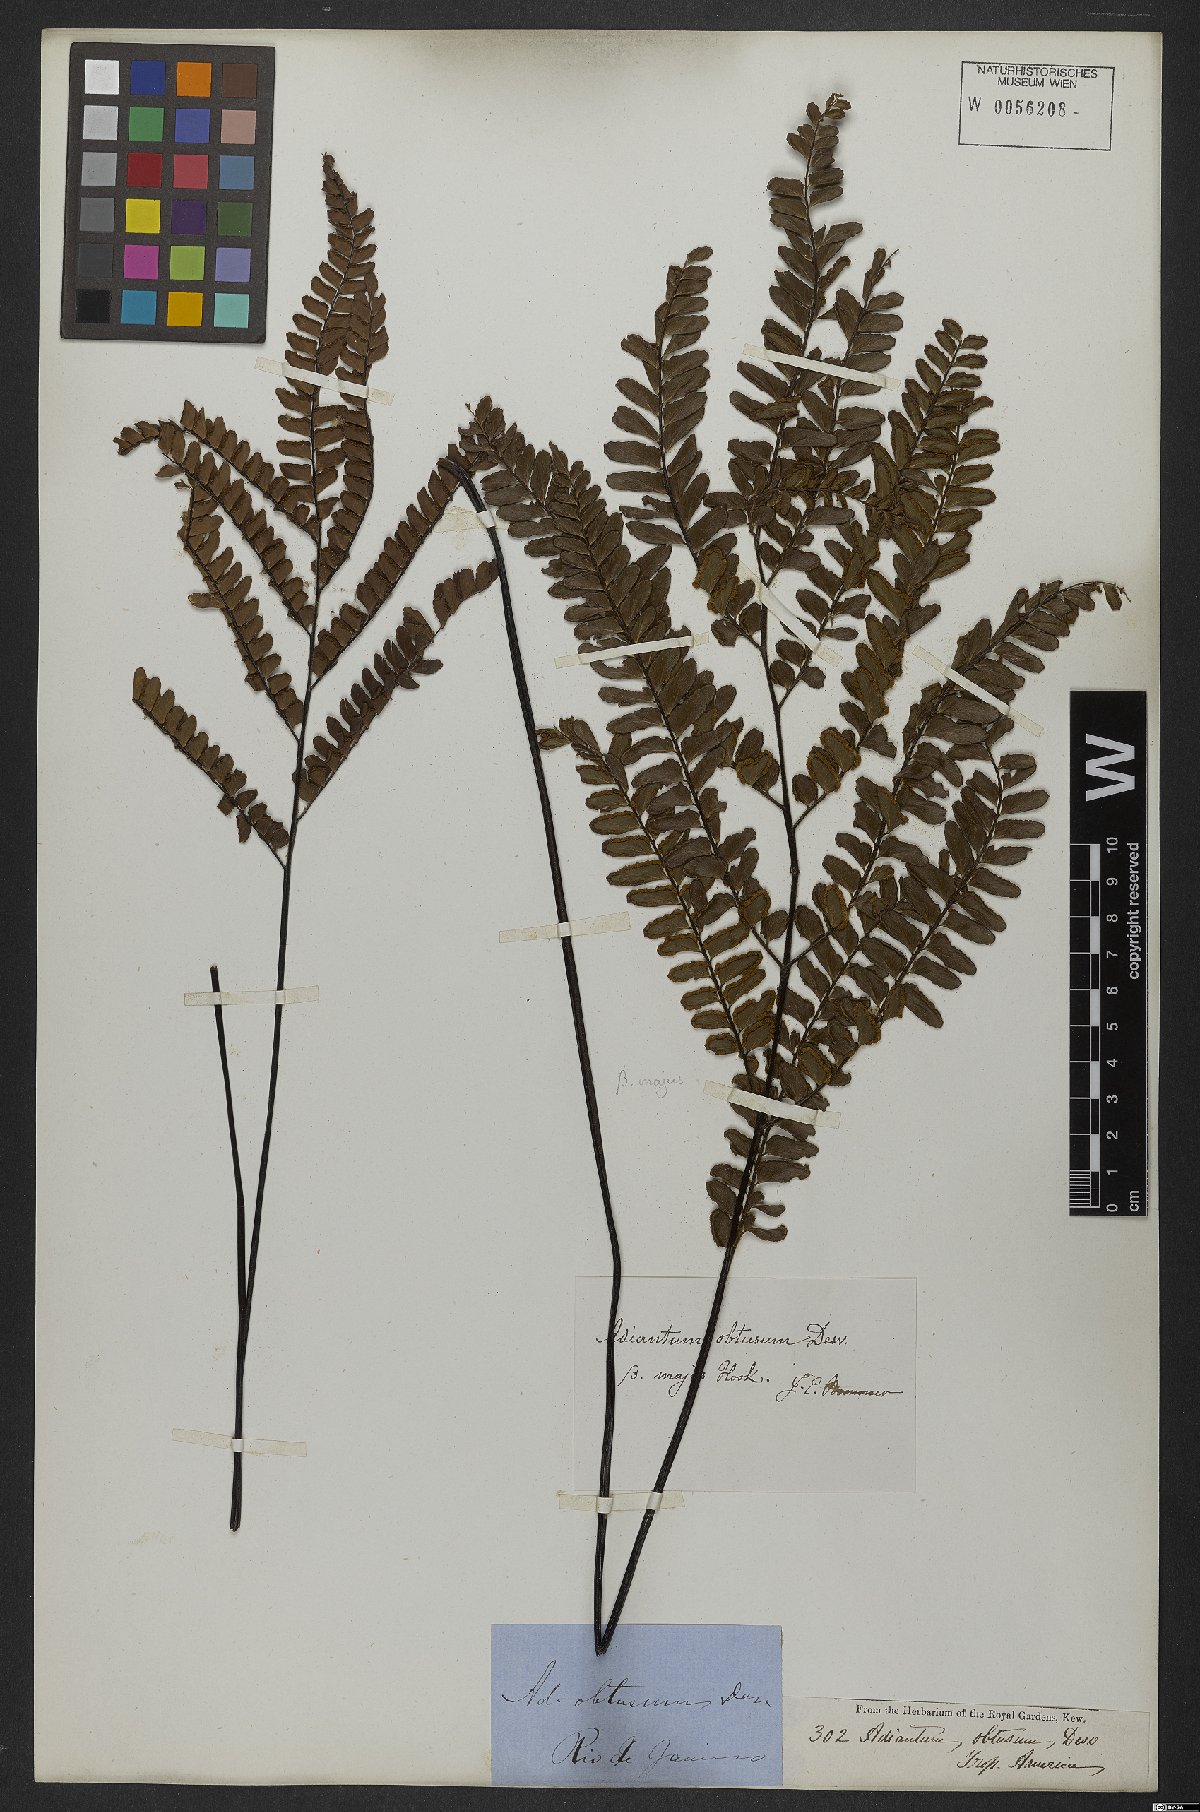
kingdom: Plantae
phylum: Tracheophyta
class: Polypodiopsida
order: Polypodiales
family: Pteridaceae
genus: Adiantum
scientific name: Adiantum serratodentatum
